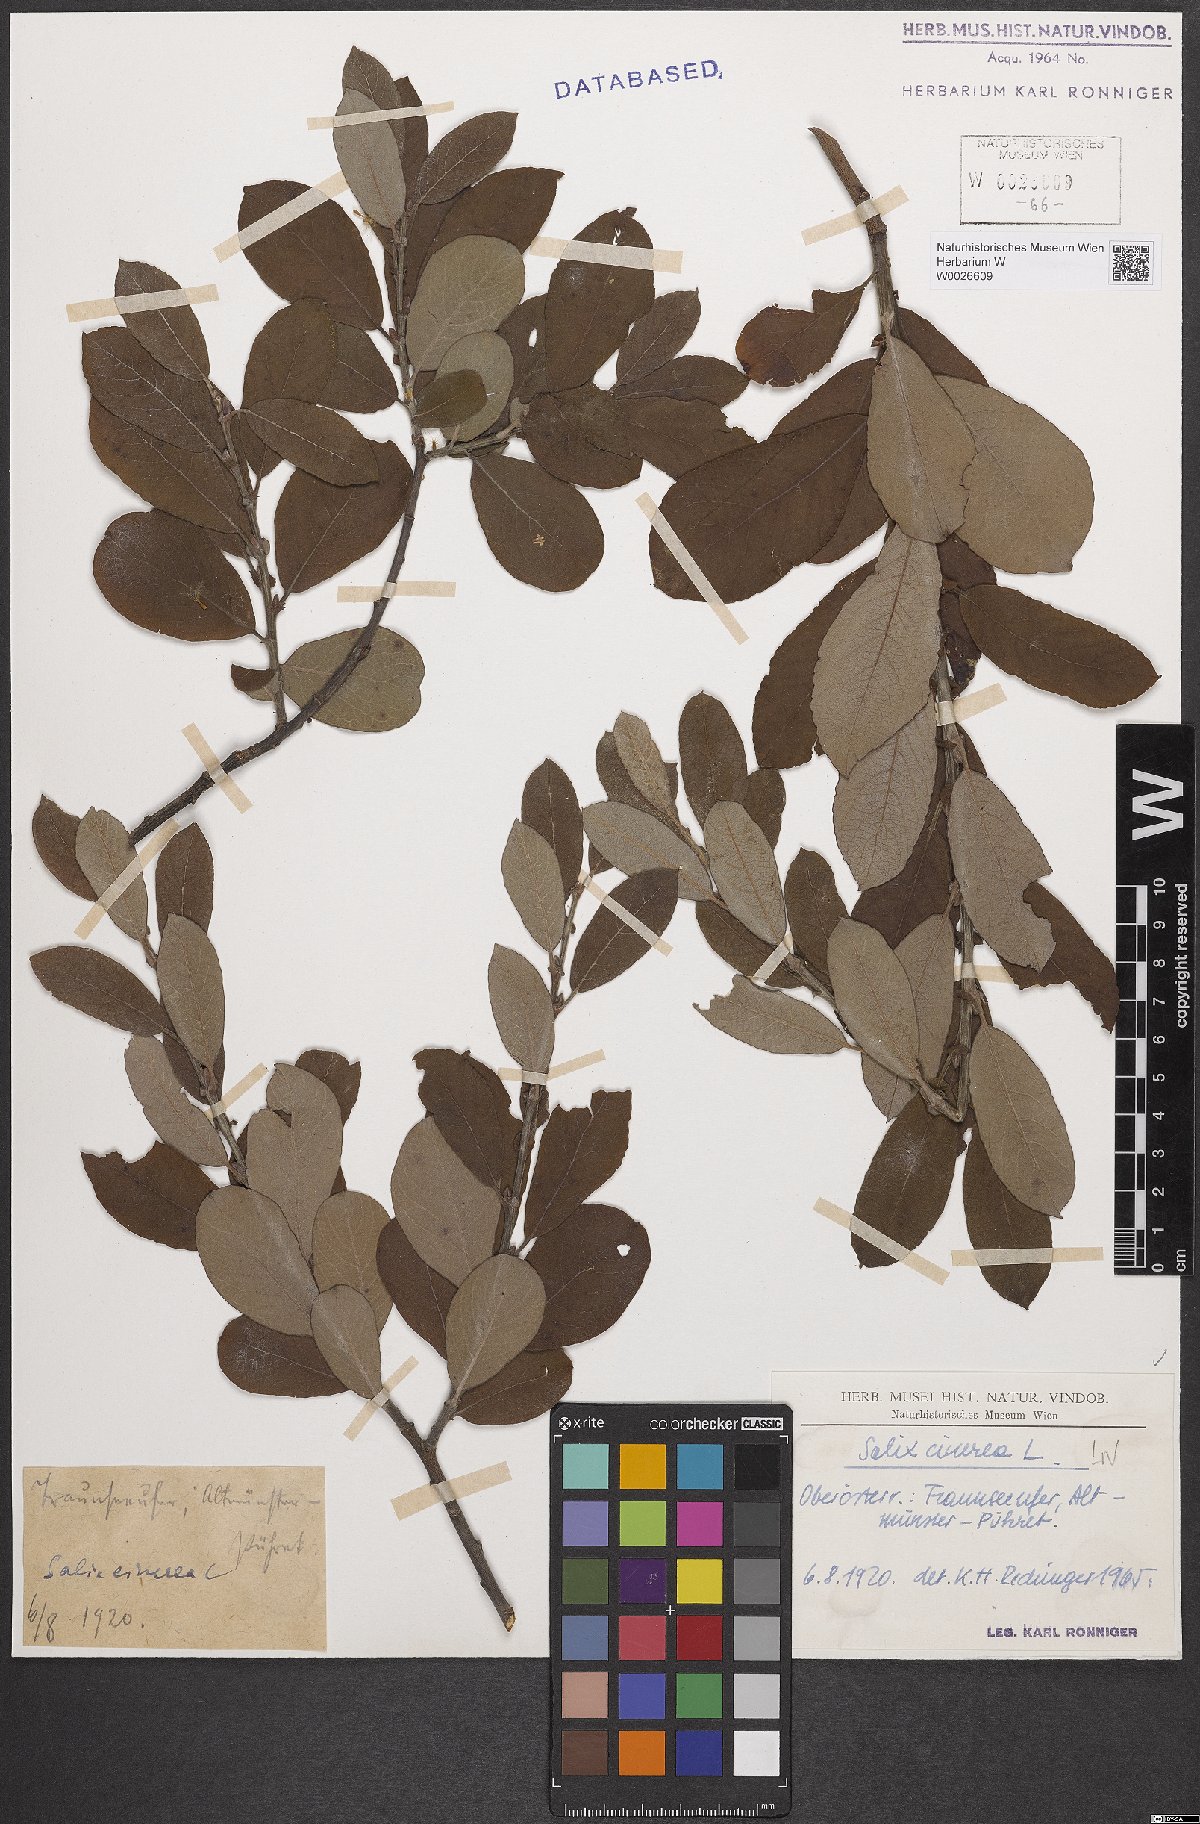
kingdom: Plantae
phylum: Tracheophyta
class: Magnoliopsida
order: Malpighiales
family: Salicaceae
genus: Salix
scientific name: Salix cinerea
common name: Common sallow
